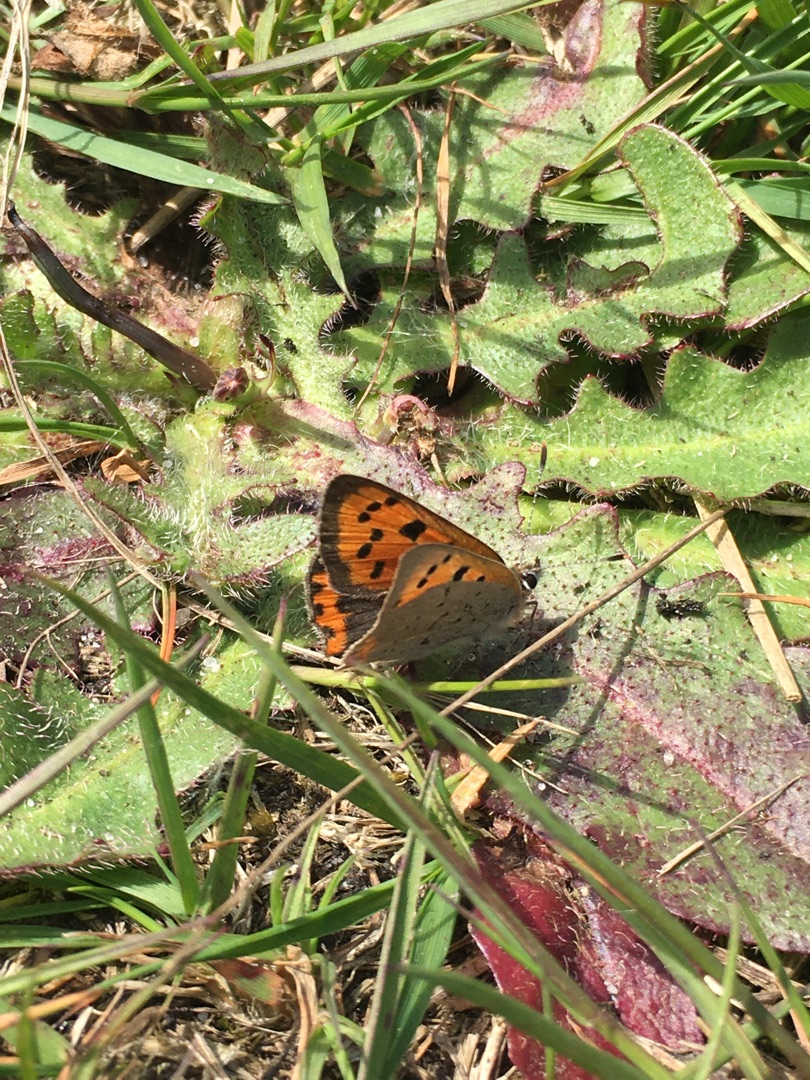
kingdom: Animalia
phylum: Arthropoda
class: Insecta
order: Lepidoptera
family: Lycaenidae
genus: Lycaena
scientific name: Lycaena phlaeas
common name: Lille ildfugl
